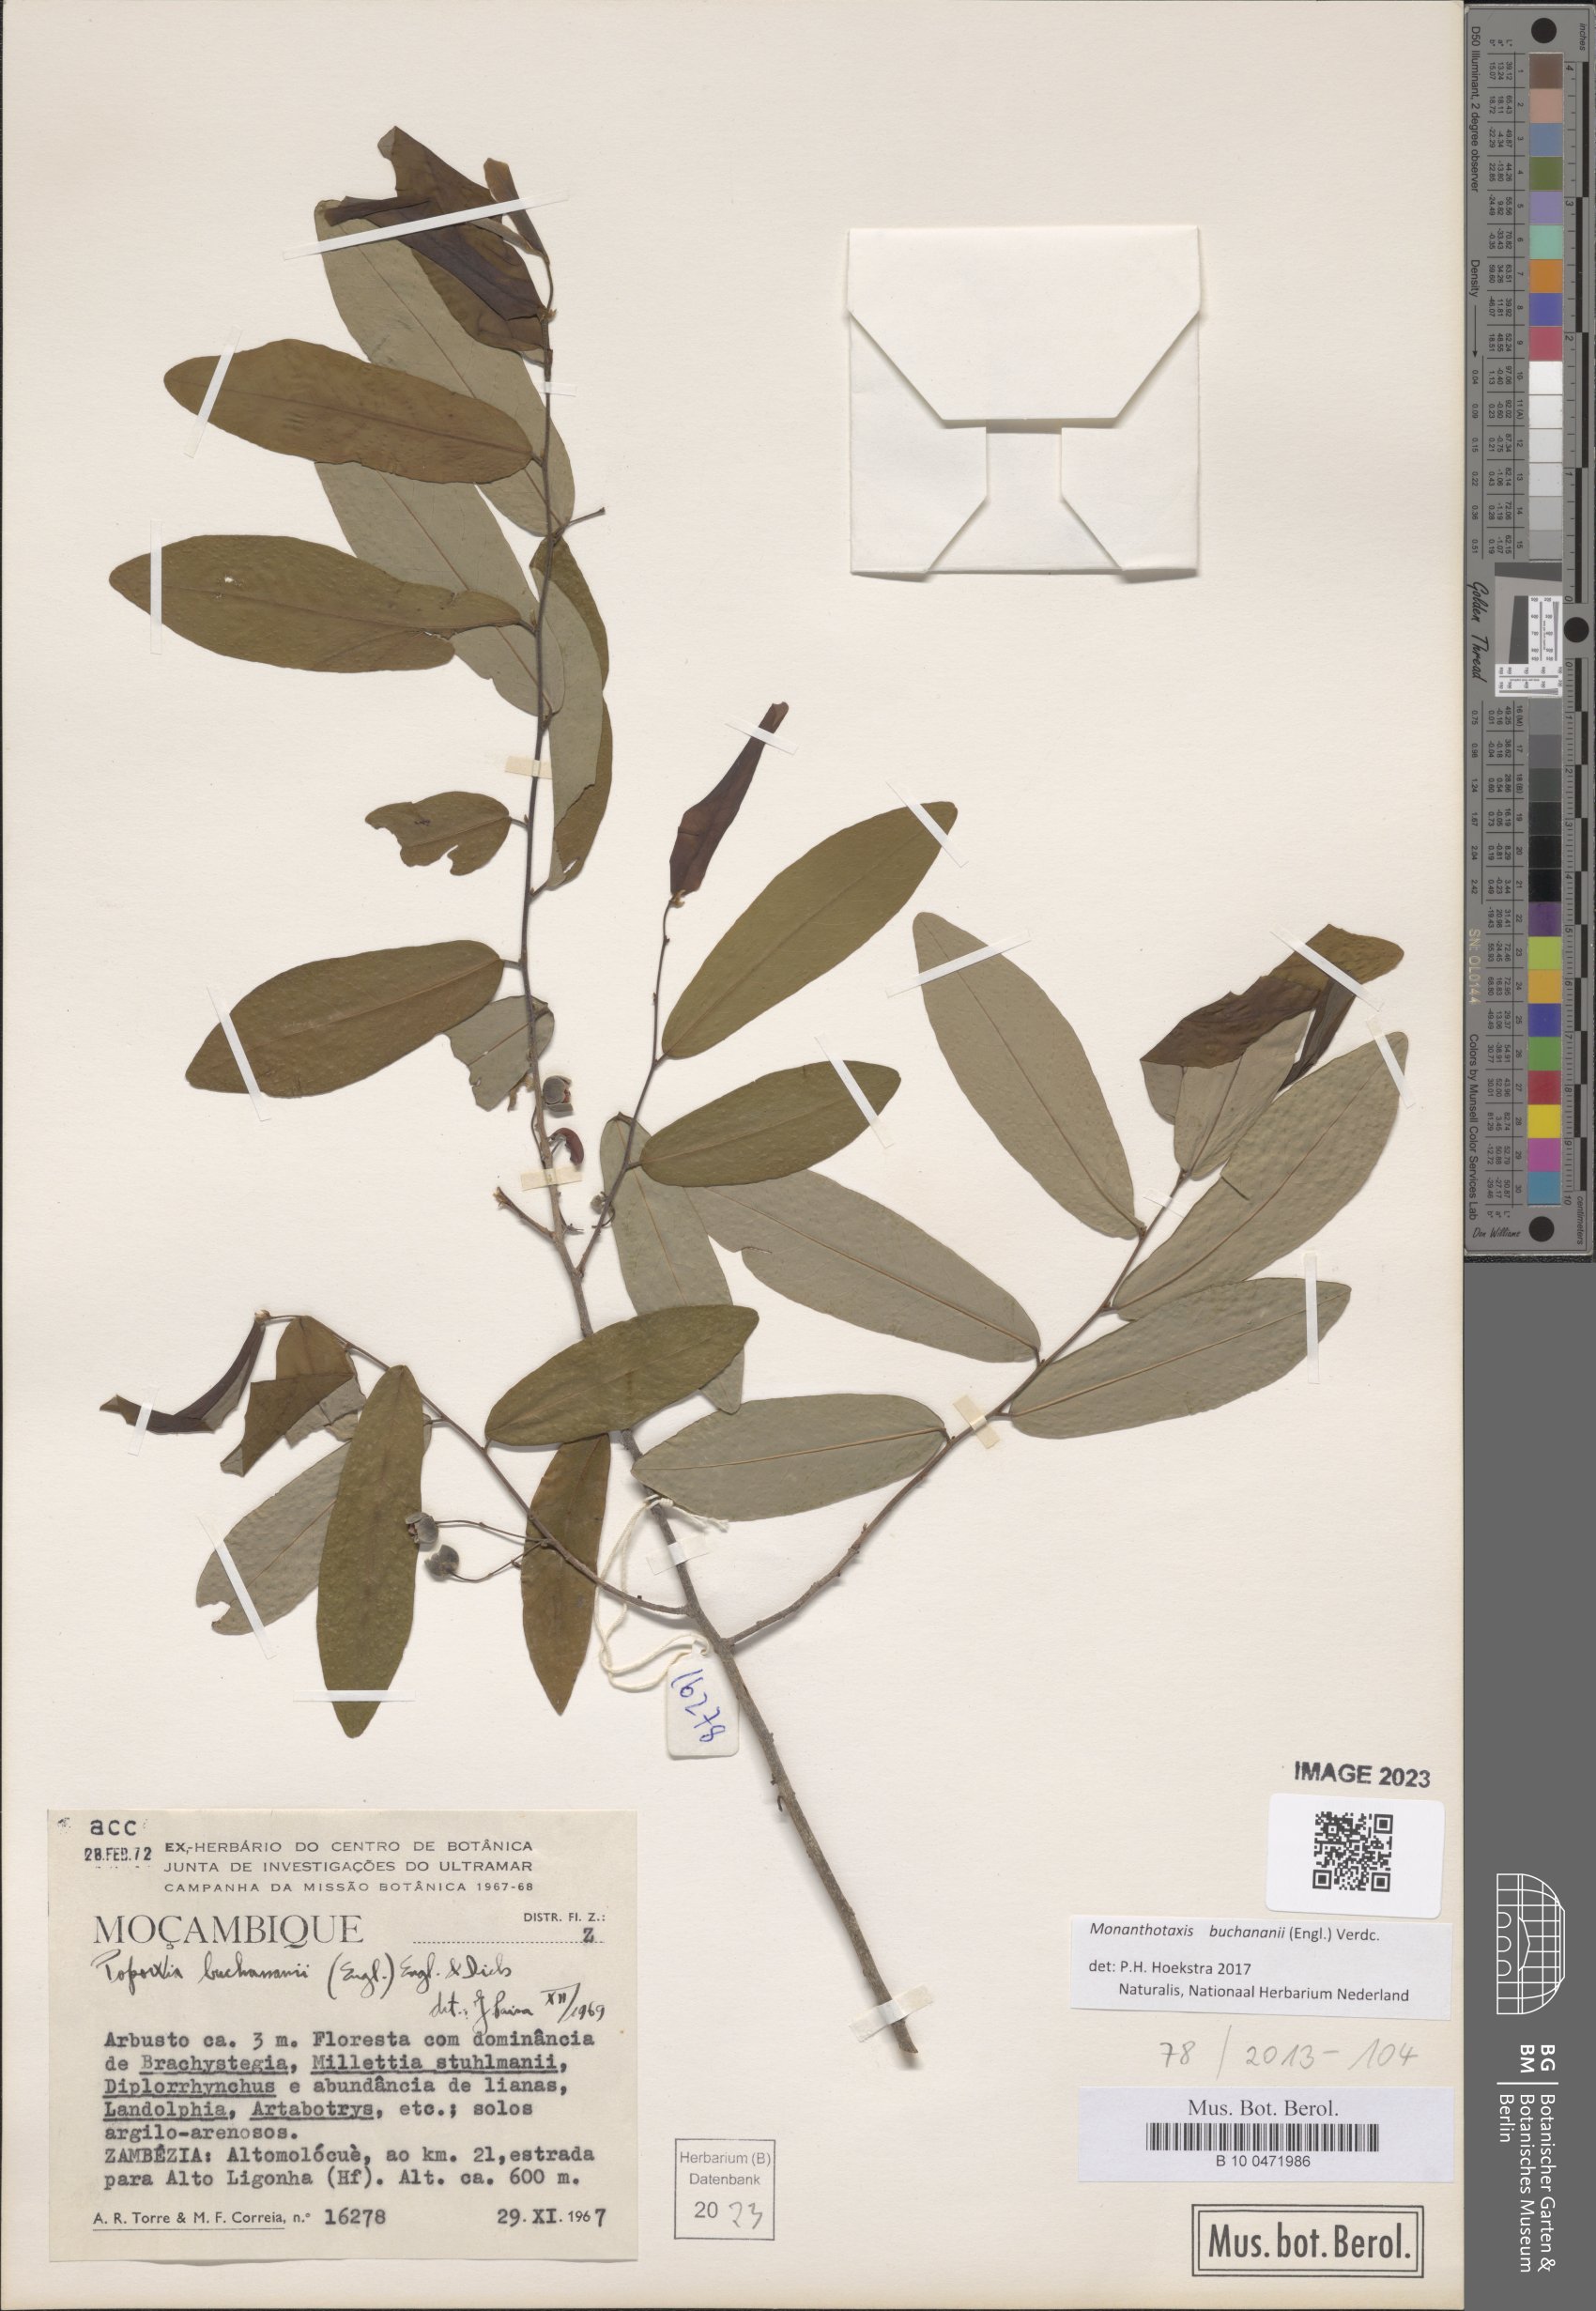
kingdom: Plantae
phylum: Tracheophyta
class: Magnoliopsida
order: Magnoliales
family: Annonaceae
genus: Monanthotaxis
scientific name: Monanthotaxis buchananii
